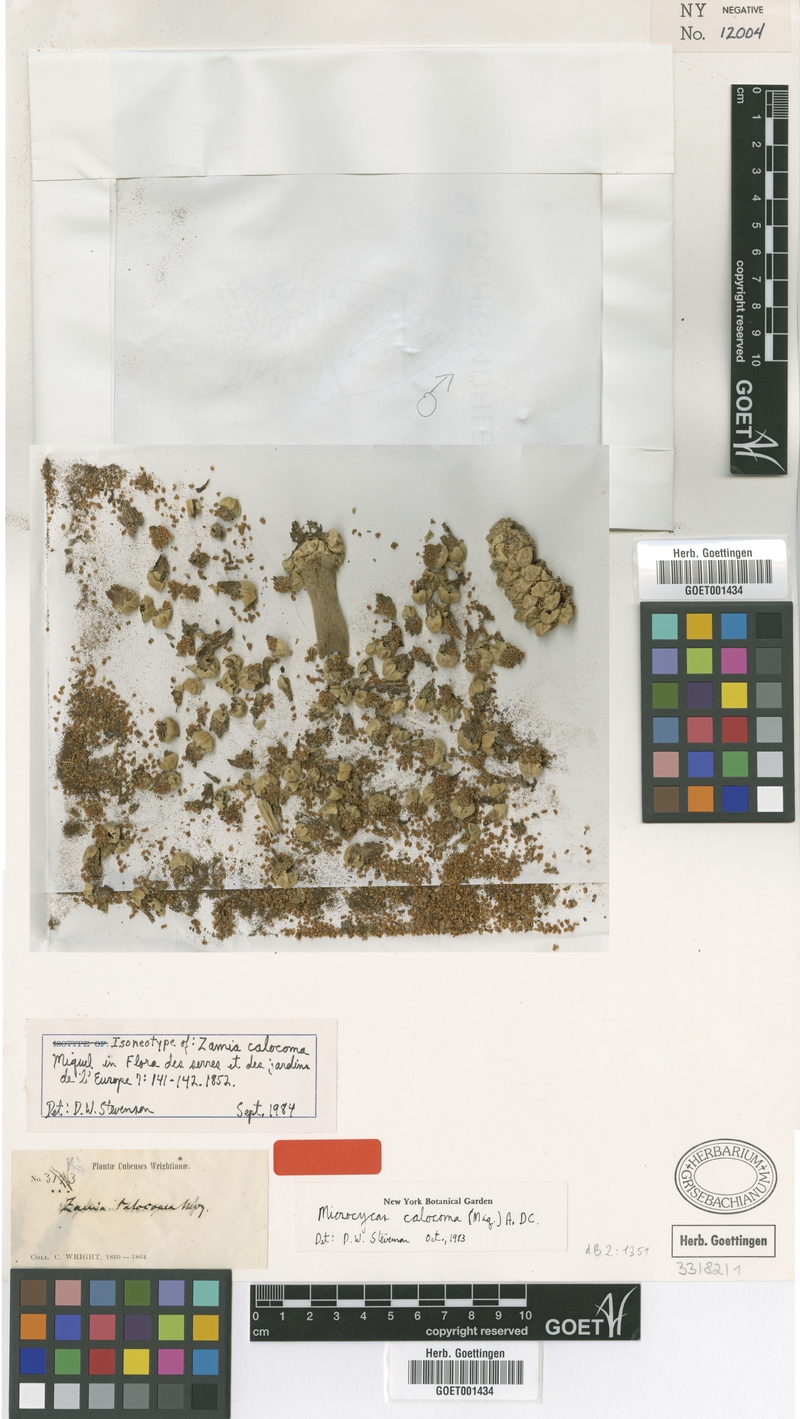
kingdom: Plantae
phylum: Tracheophyta
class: Cycadopsida
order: Cycadales
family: Zamiaceae
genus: Microcycas
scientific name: Microcycas calocoma
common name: Cork palm
